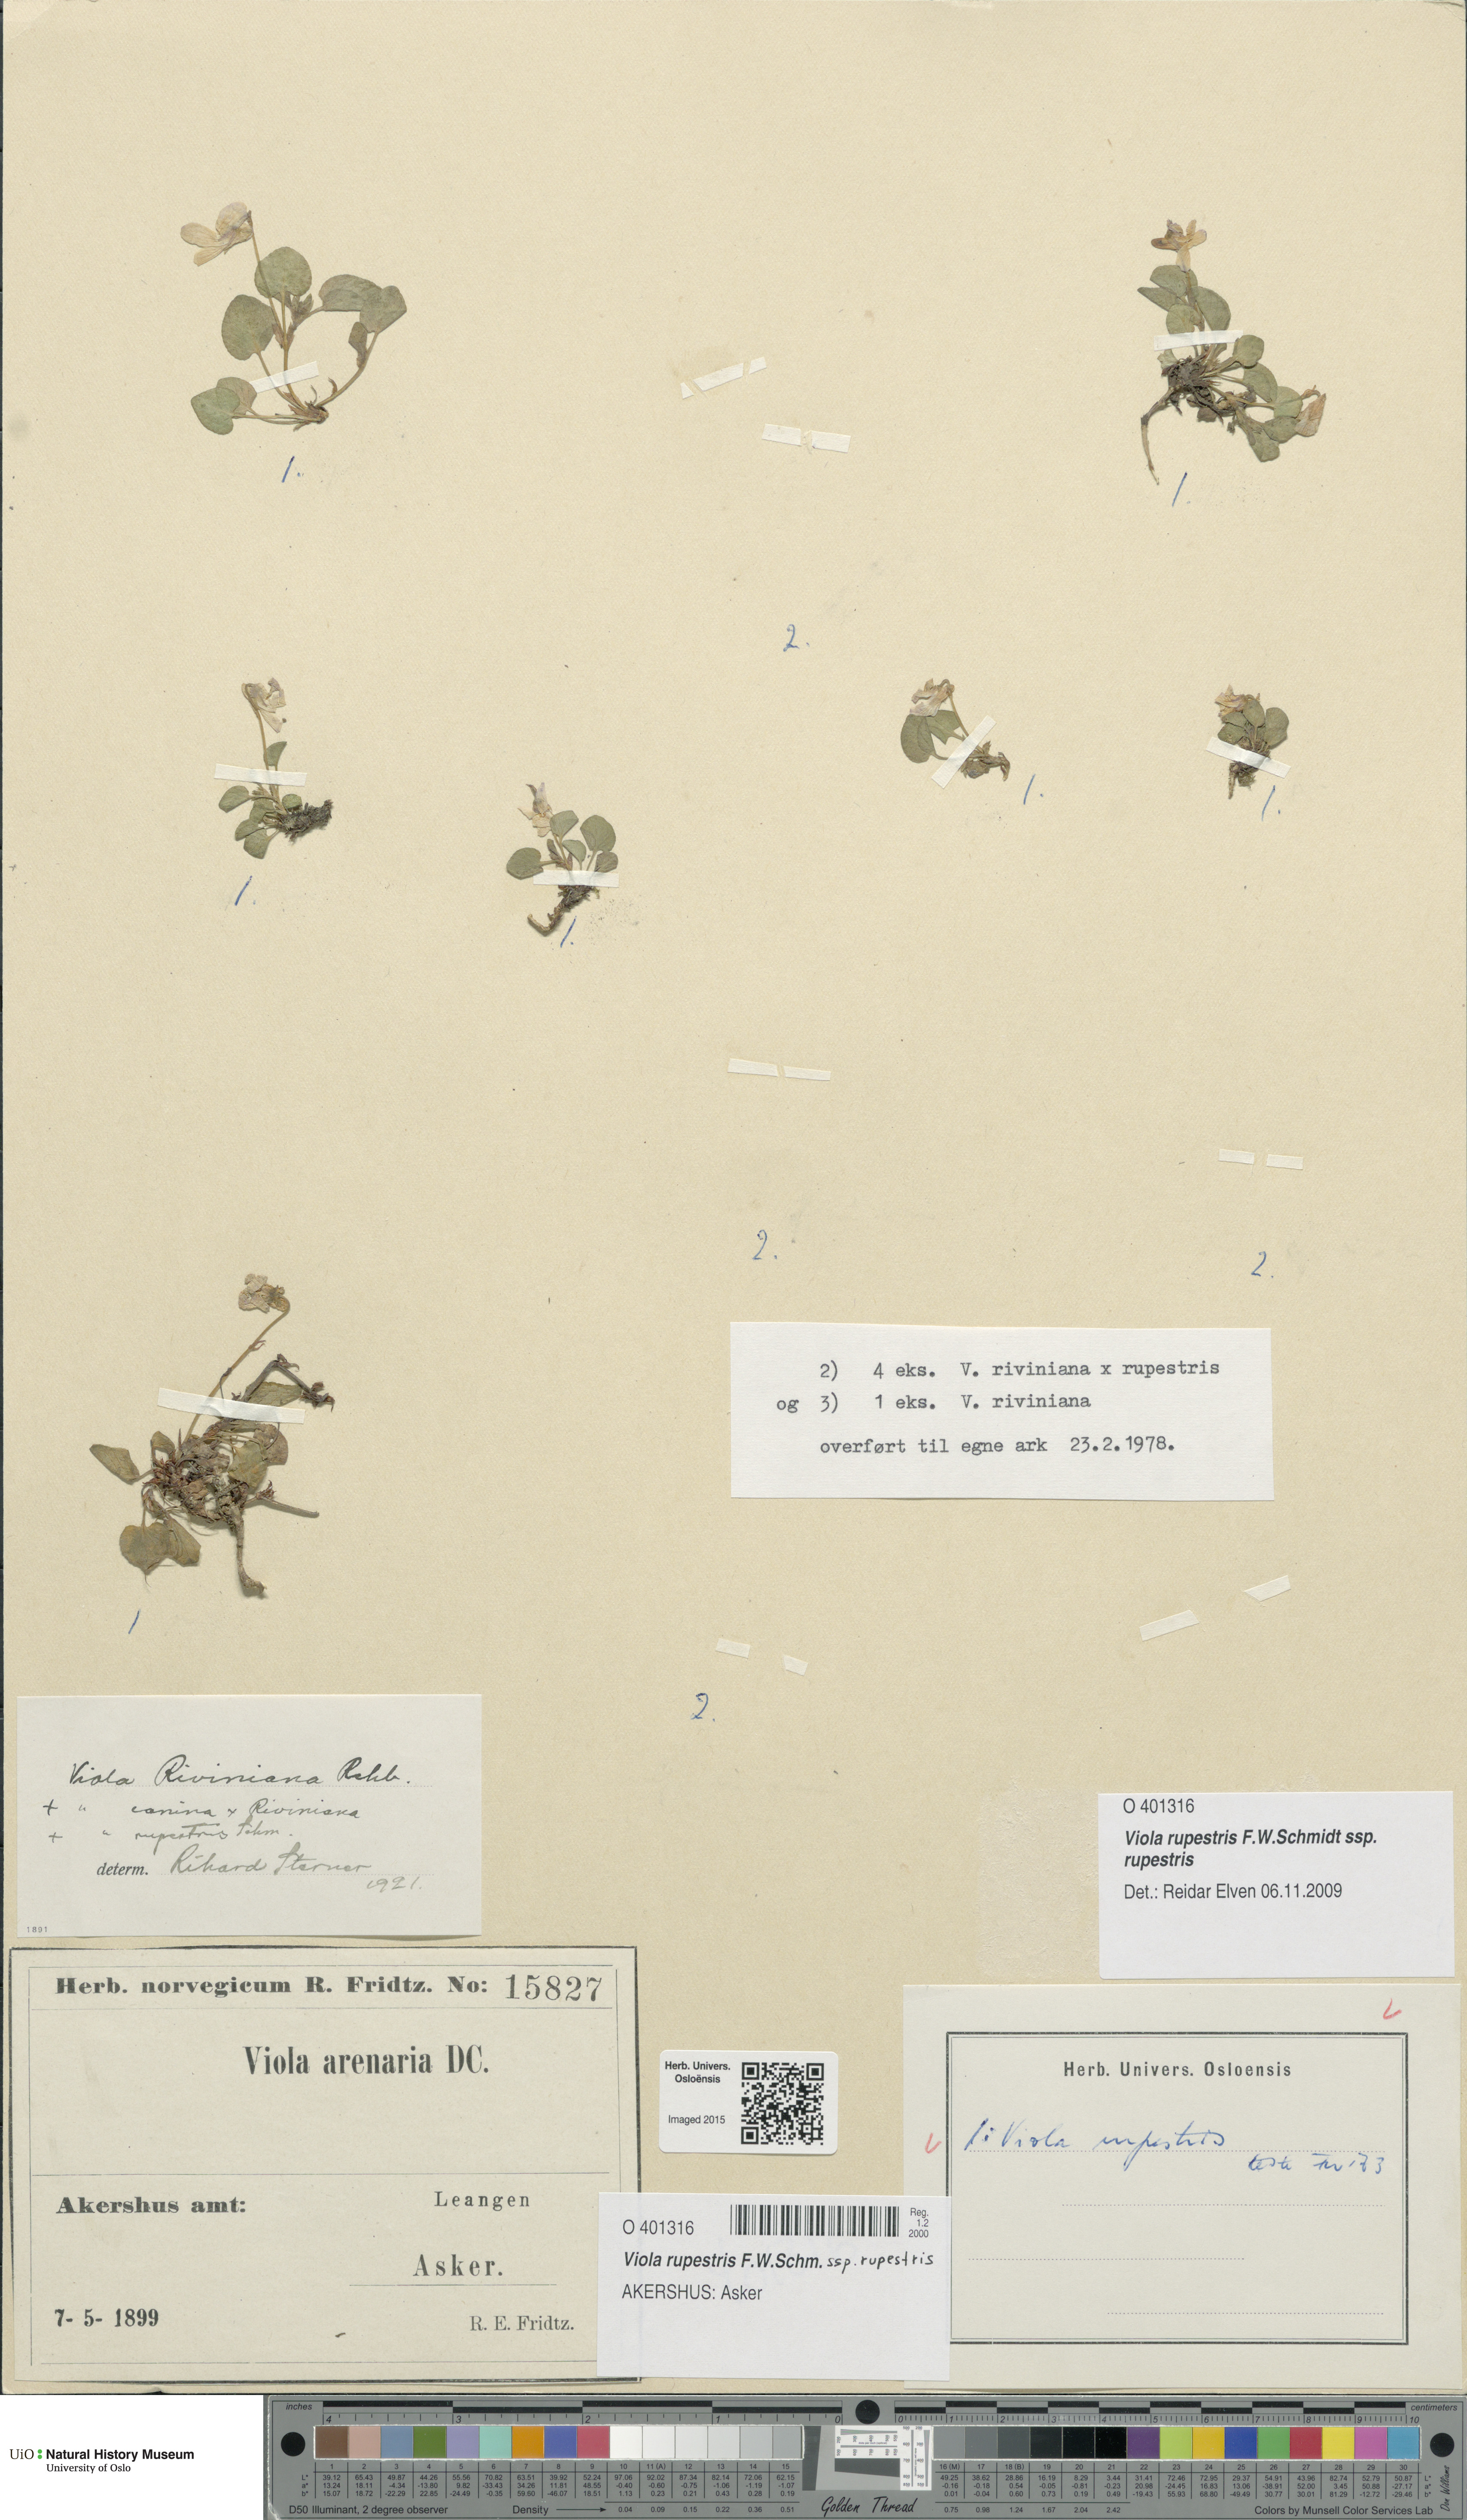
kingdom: Plantae
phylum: Tracheophyta
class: Magnoliopsida
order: Malpighiales
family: Violaceae
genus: Viola
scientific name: Viola rupestris
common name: Teesdale violet
